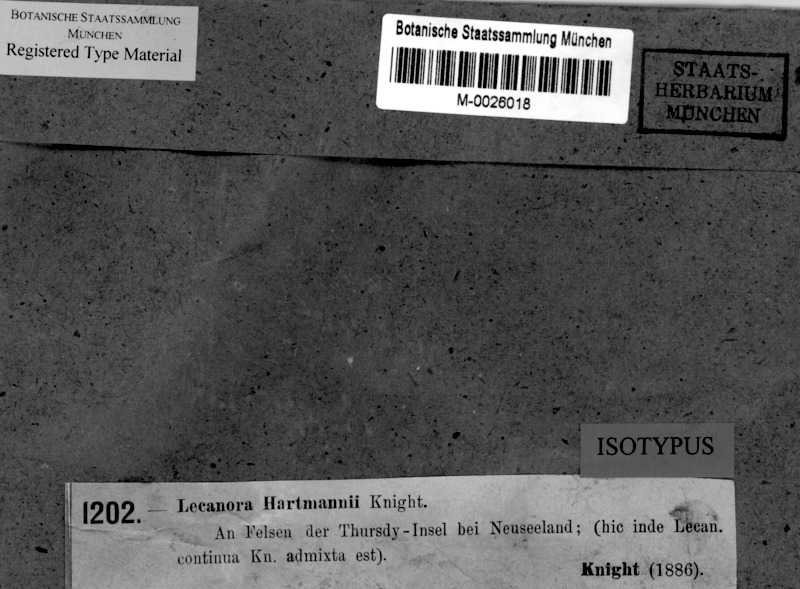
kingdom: Fungi
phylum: Ascomycota
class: Lecanoromycetes
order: Lecanorales
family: Lecanoraceae
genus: Lecanora
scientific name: Lecanora hartmannii
